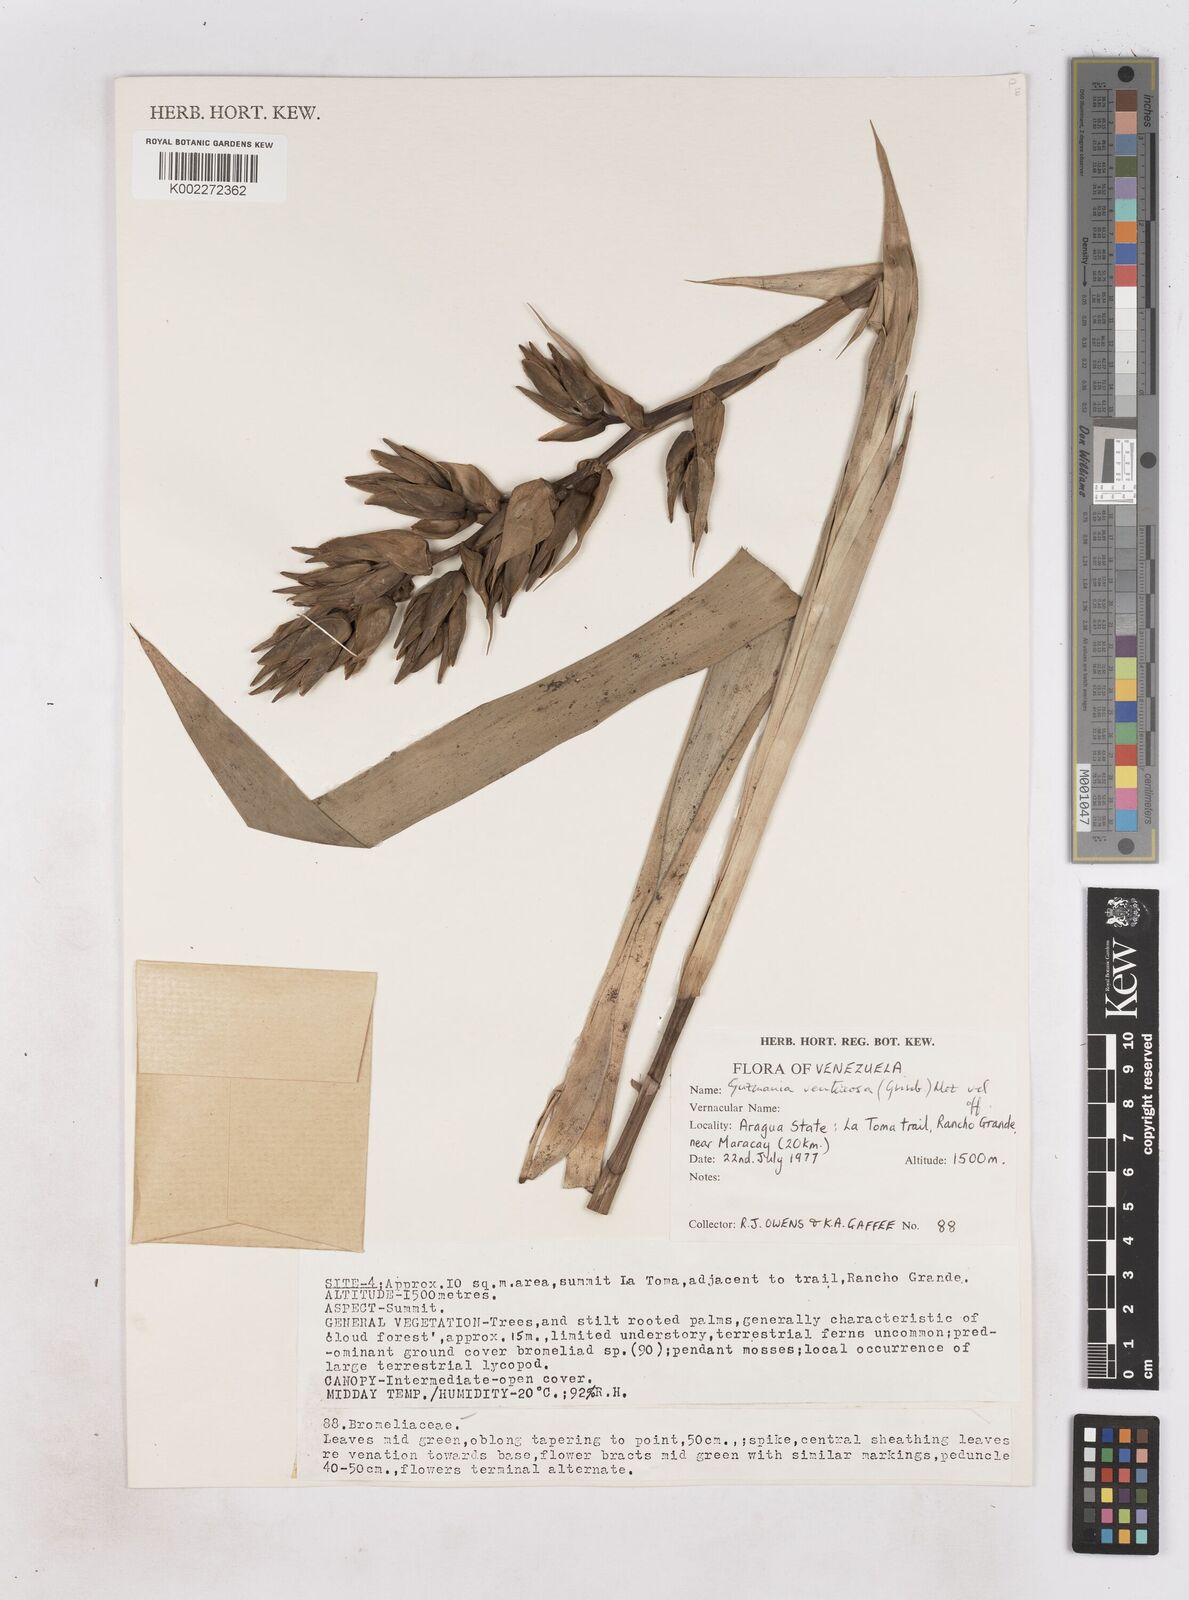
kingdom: Plantae
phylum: Tracheophyta
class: Liliopsida
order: Poales
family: Bromeliaceae
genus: Guzmania
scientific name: Guzmania ventricosa
